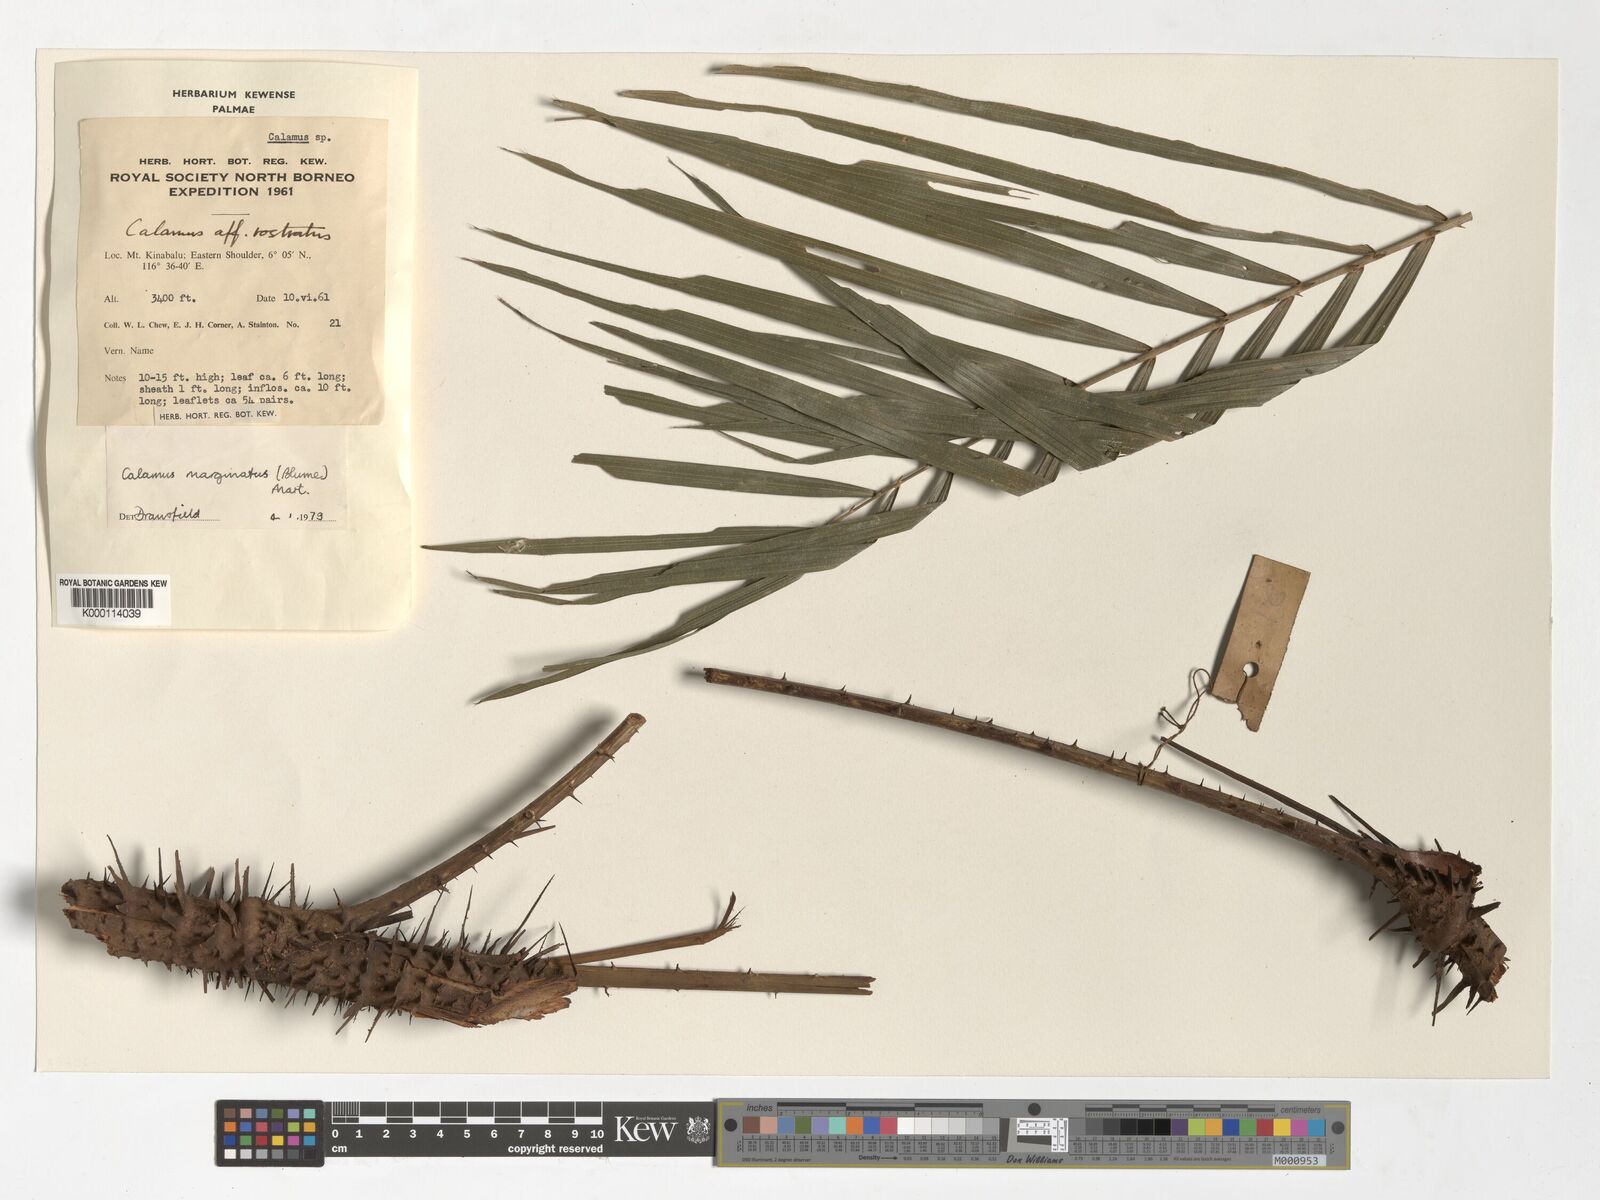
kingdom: Plantae
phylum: Tracheophyta
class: Liliopsida
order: Arecales
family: Arecaceae
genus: Calamus
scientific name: Calamus
